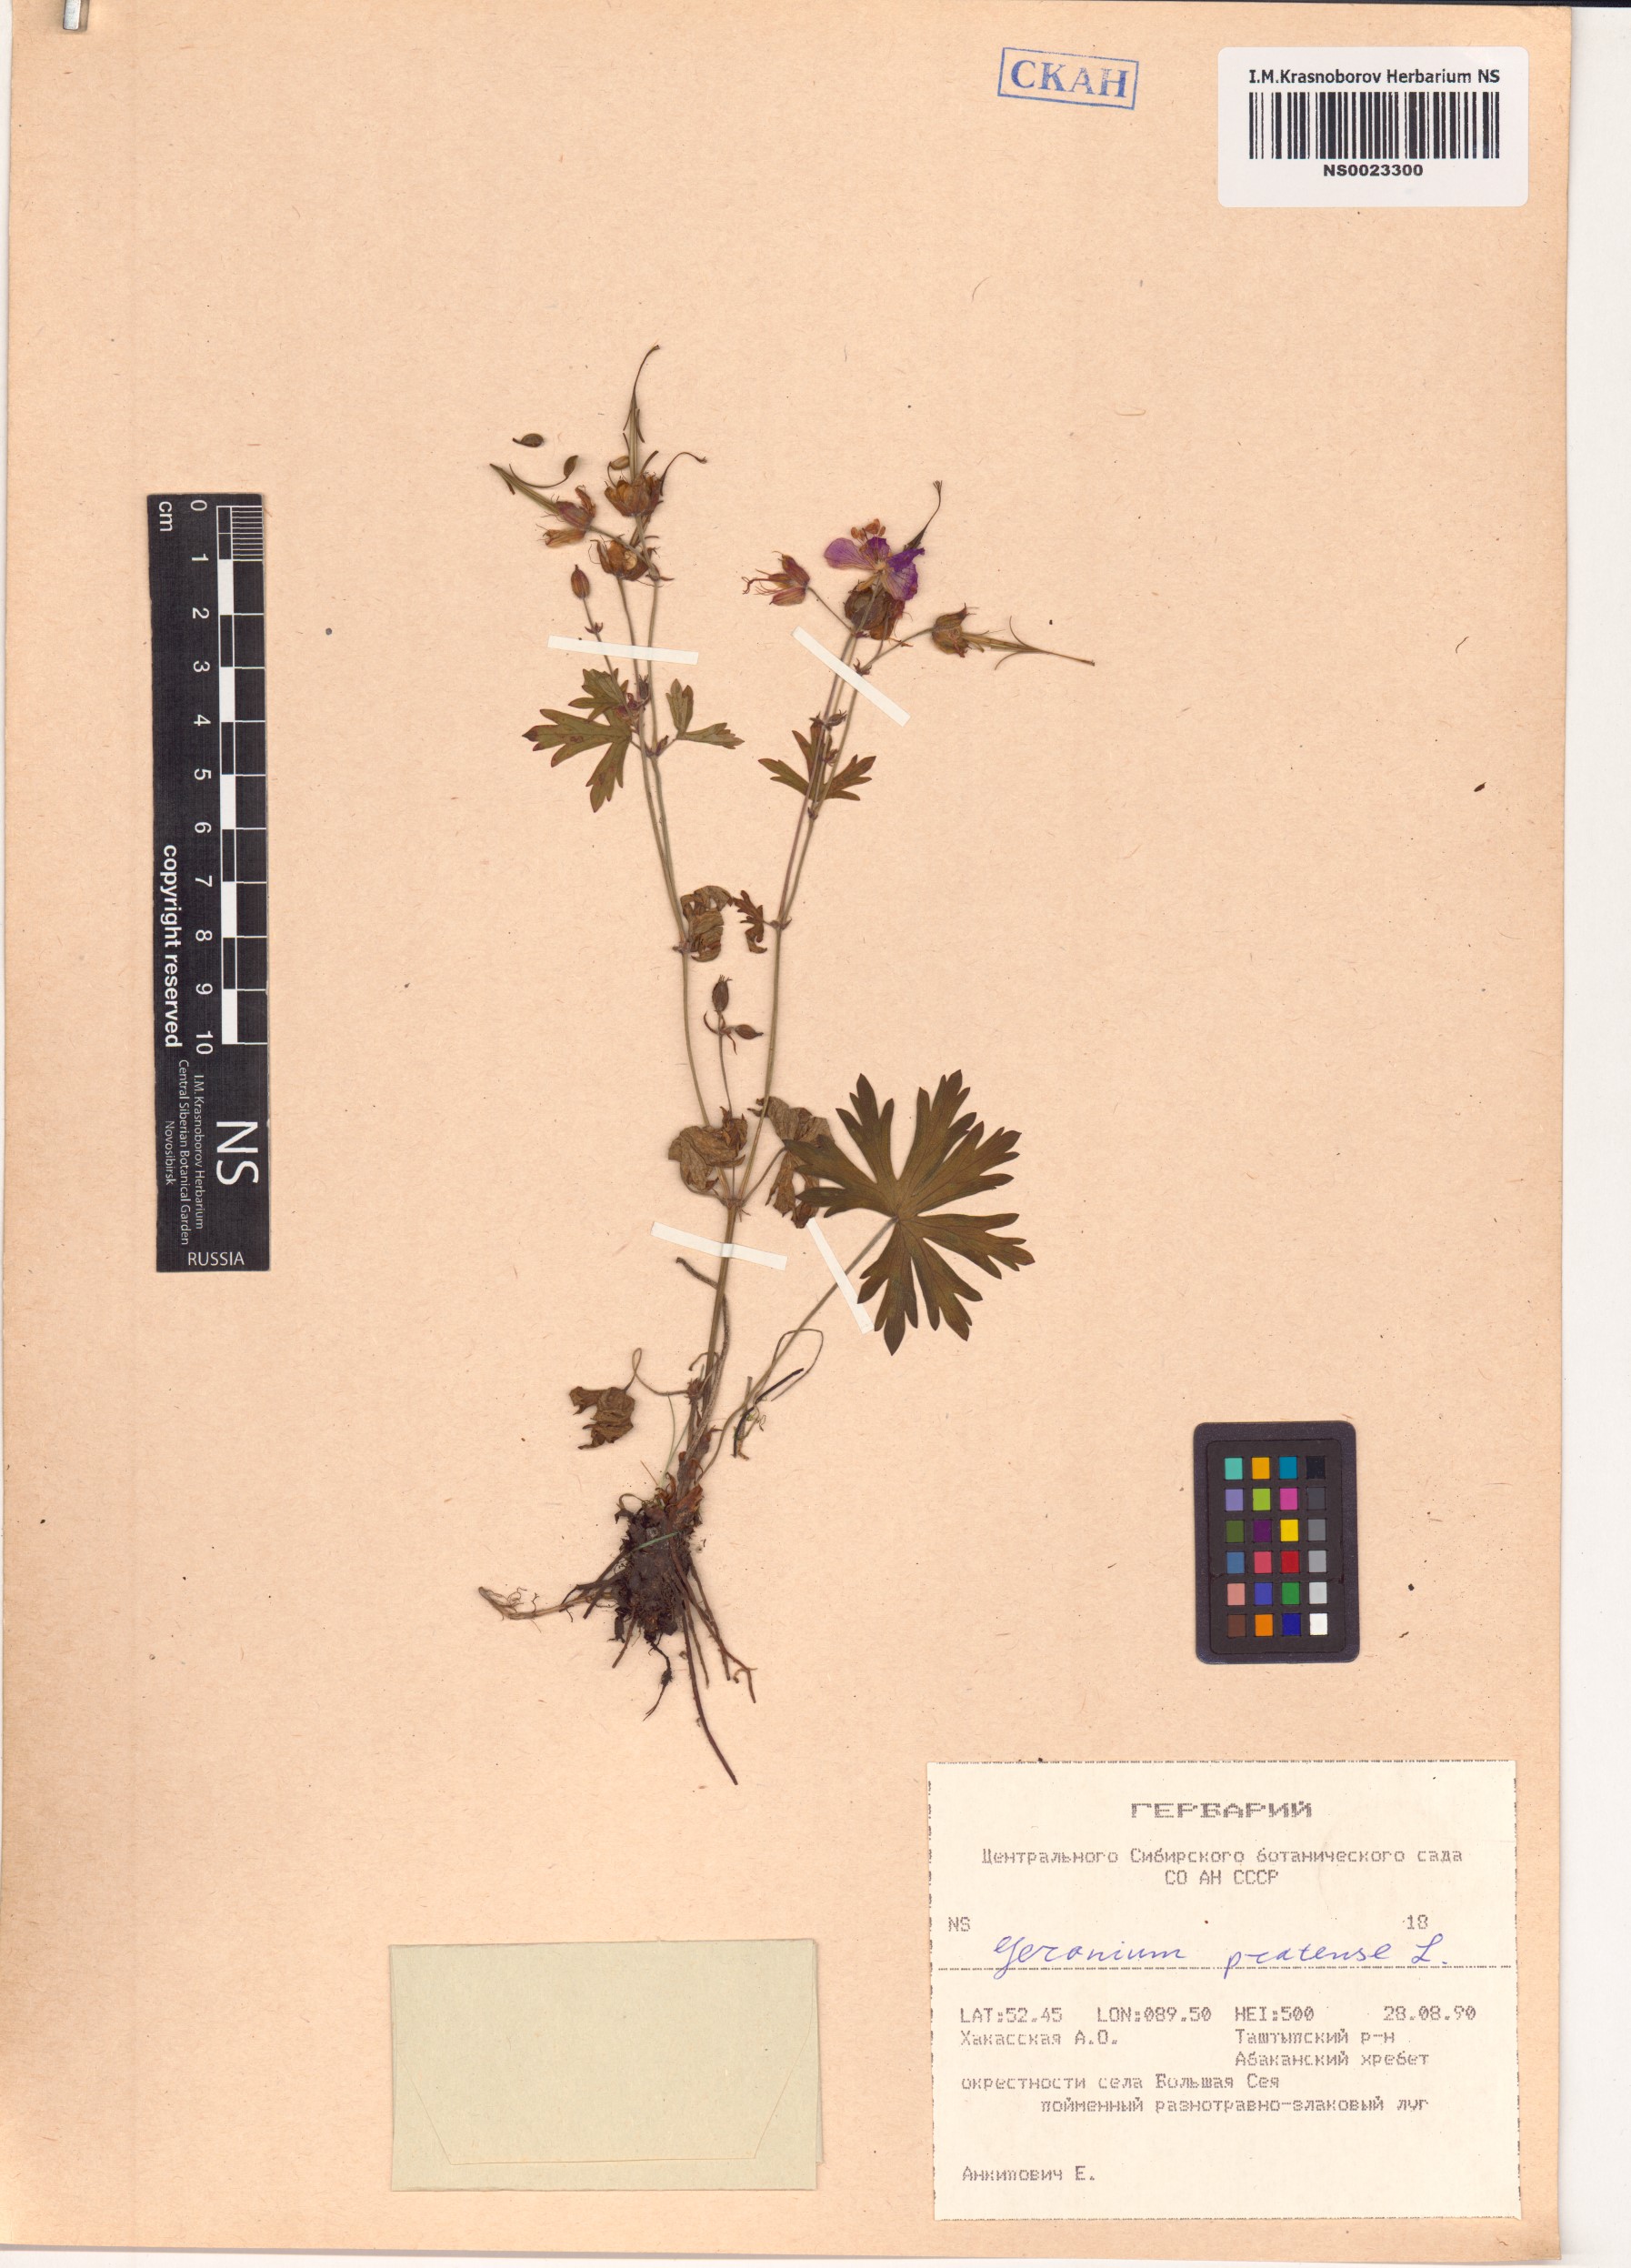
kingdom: Plantae
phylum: Tracheophyta
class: Magnoliopsida
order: Geraniales
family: Geraniaceae
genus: Geranium
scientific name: Geranium pratense
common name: Meadow crane's-bill
